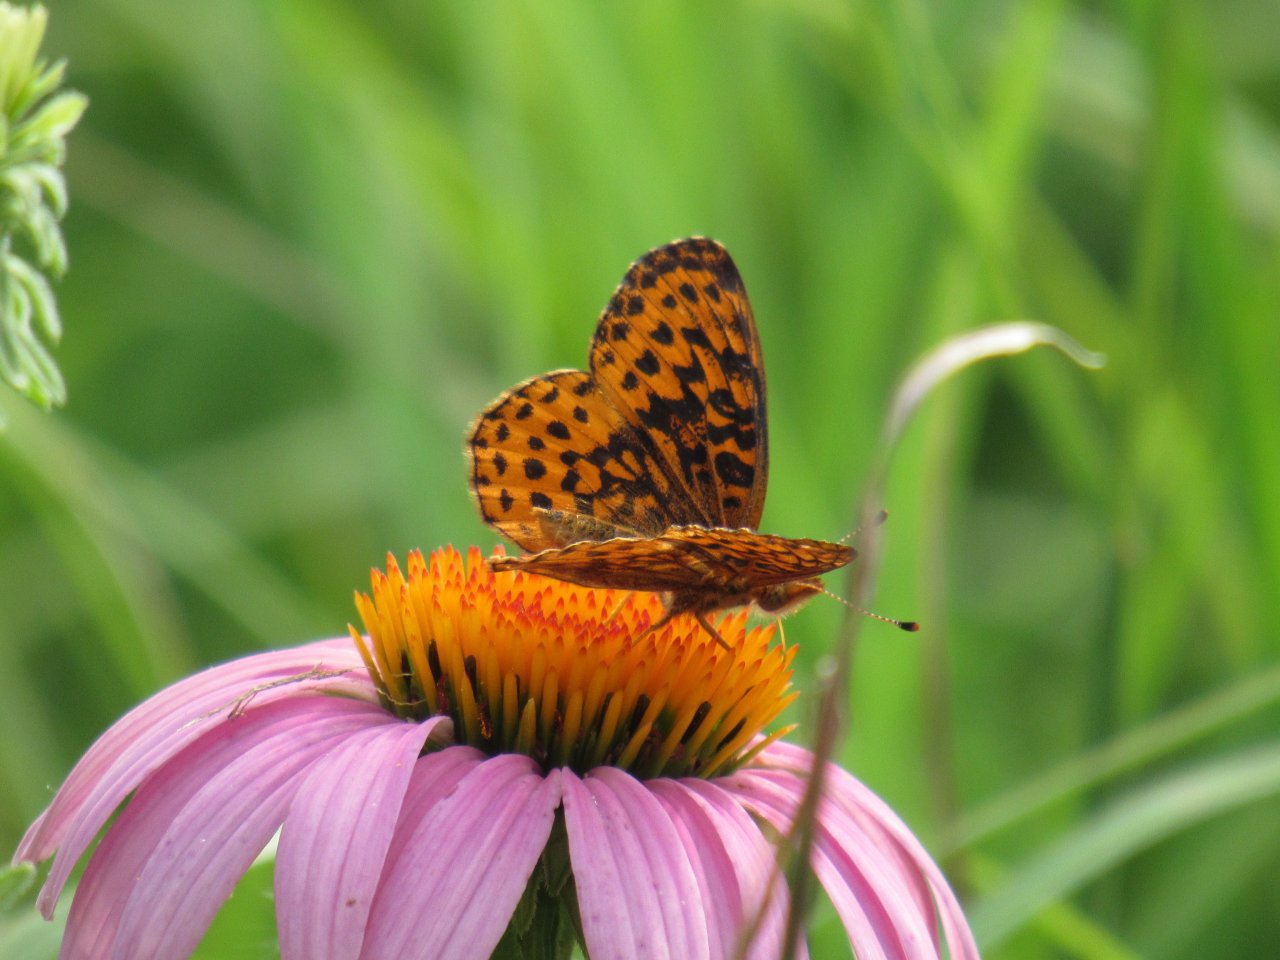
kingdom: Animalia
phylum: Arthropoda
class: Insecta
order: Lepidoptera
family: Nymphalidae
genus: Clossiana
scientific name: Clossiana toddi
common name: Meadow Fritillary
